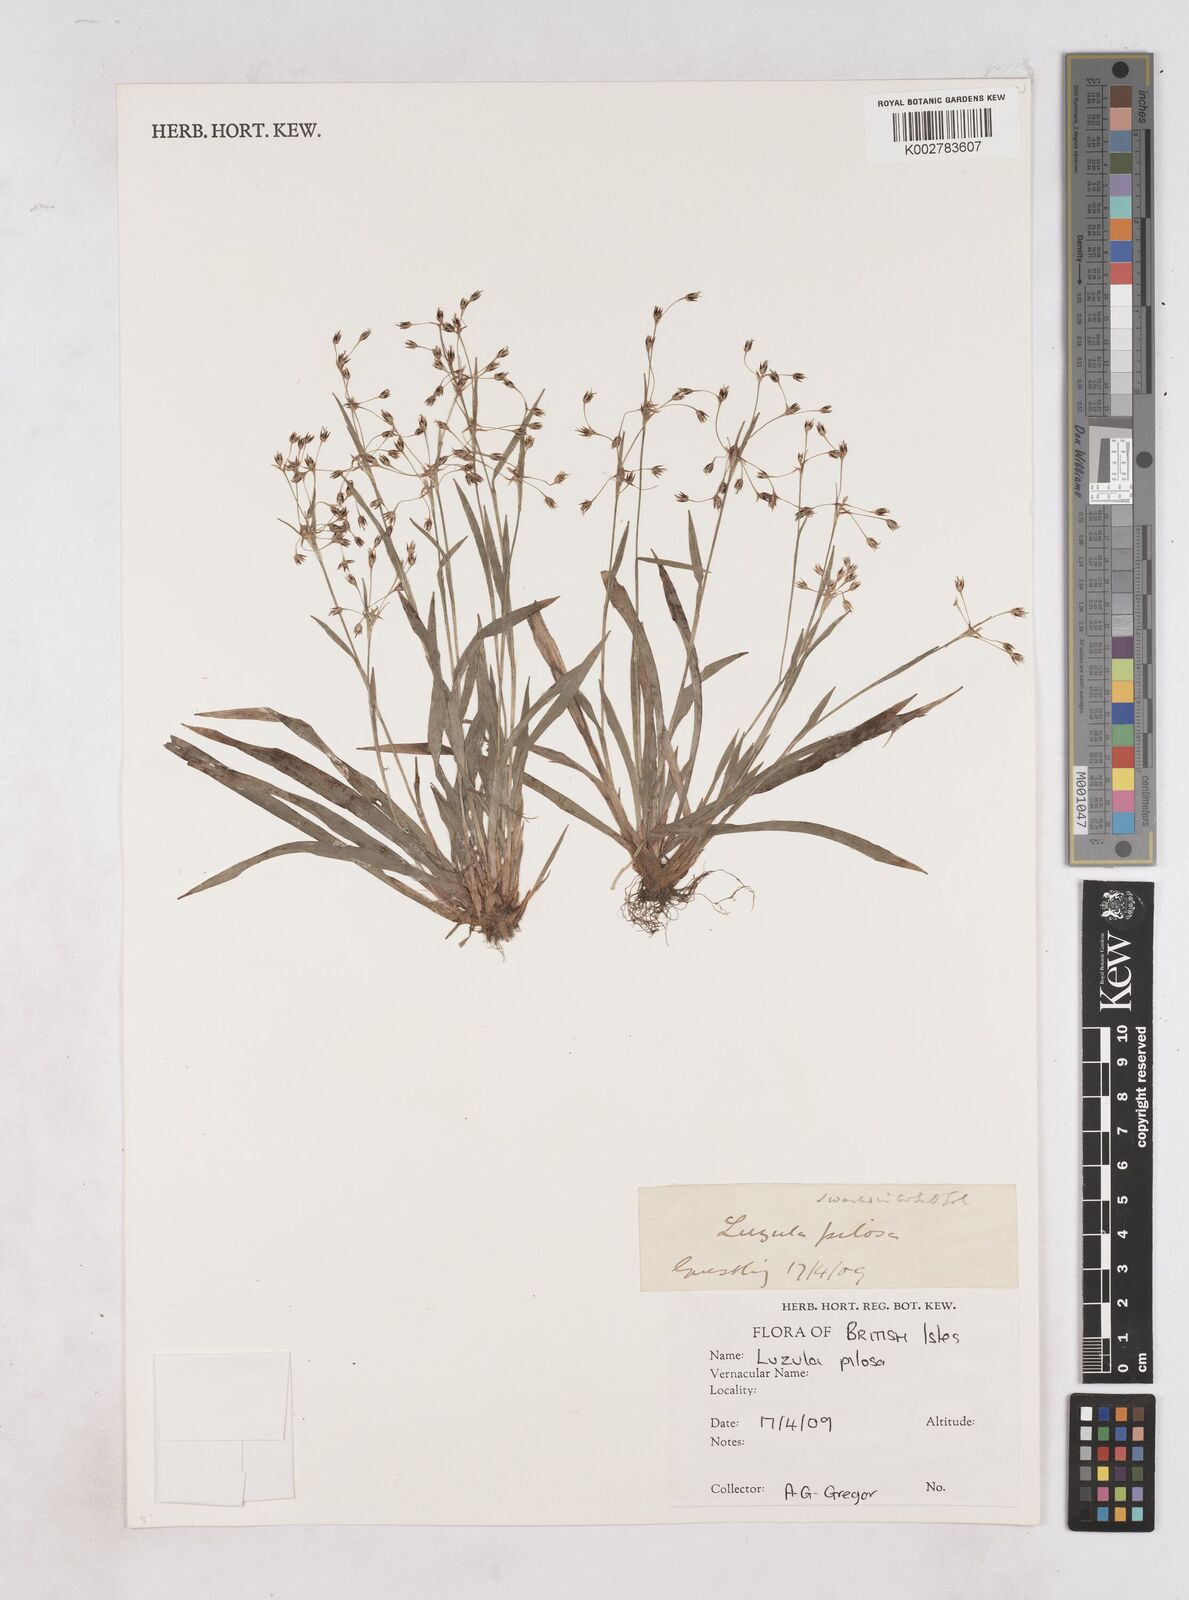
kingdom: Plantae
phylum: Tracheophyta
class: Liliopsida
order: Poales
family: Juncaceae
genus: Luzula
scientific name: Luzula
